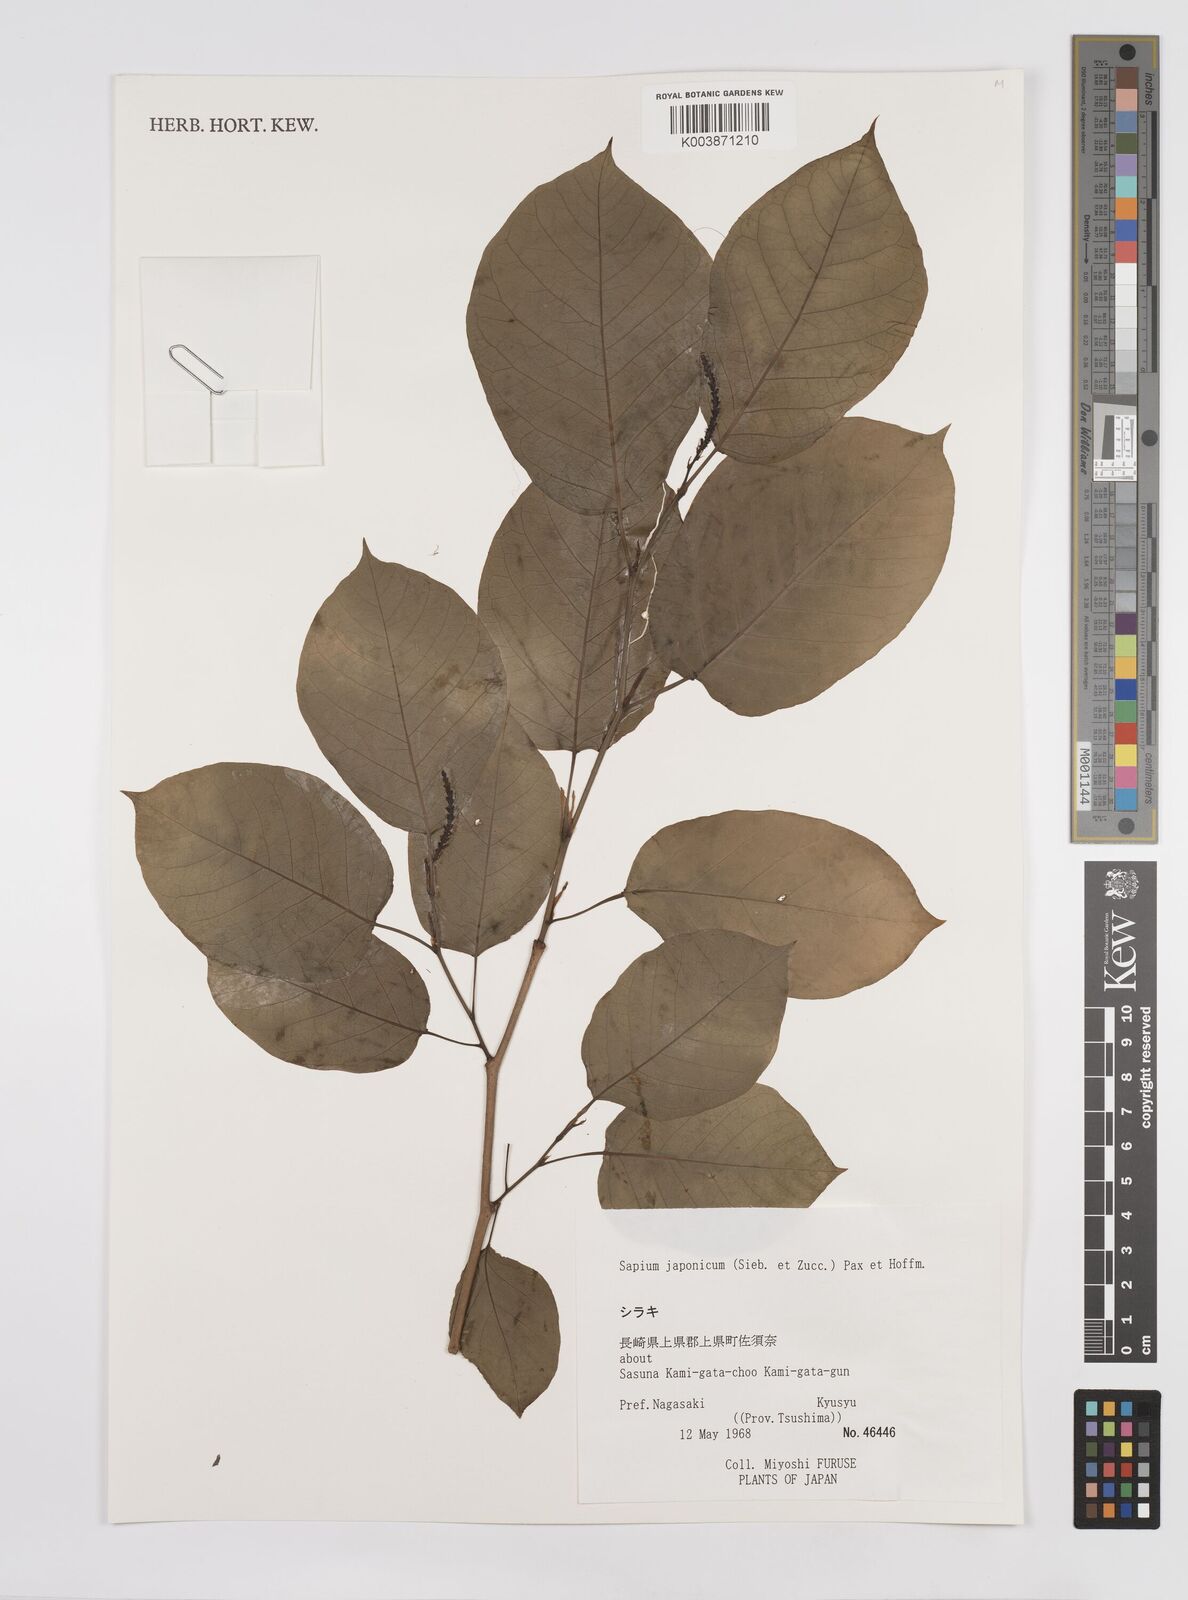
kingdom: Plantae
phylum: Tracheophyta
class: Magnoliopsida
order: Malpighiales
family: Euphorbiaceae
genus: Neoshirakia
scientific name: Neoshirakia japonica
